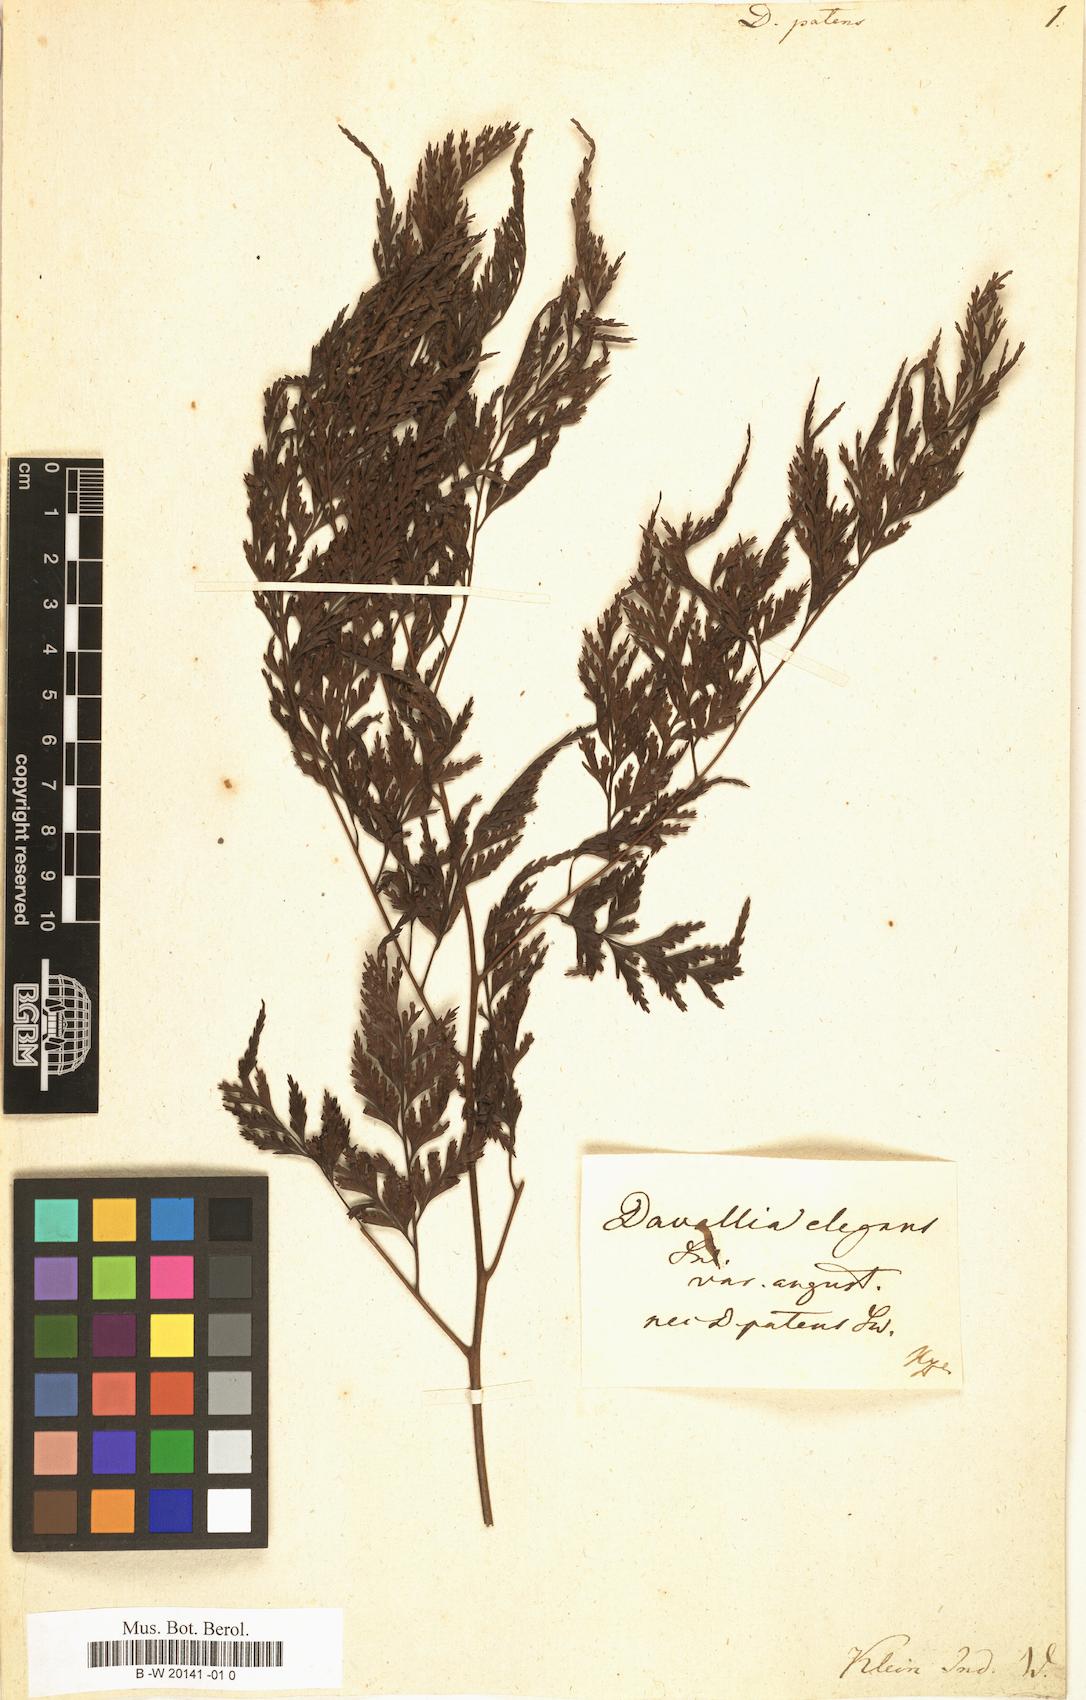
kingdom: Plantae
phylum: Tracheophyta
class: Polypodiopsida
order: Polypodiales
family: Davalliaceae
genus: Davallia
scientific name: Davallia denticulata
